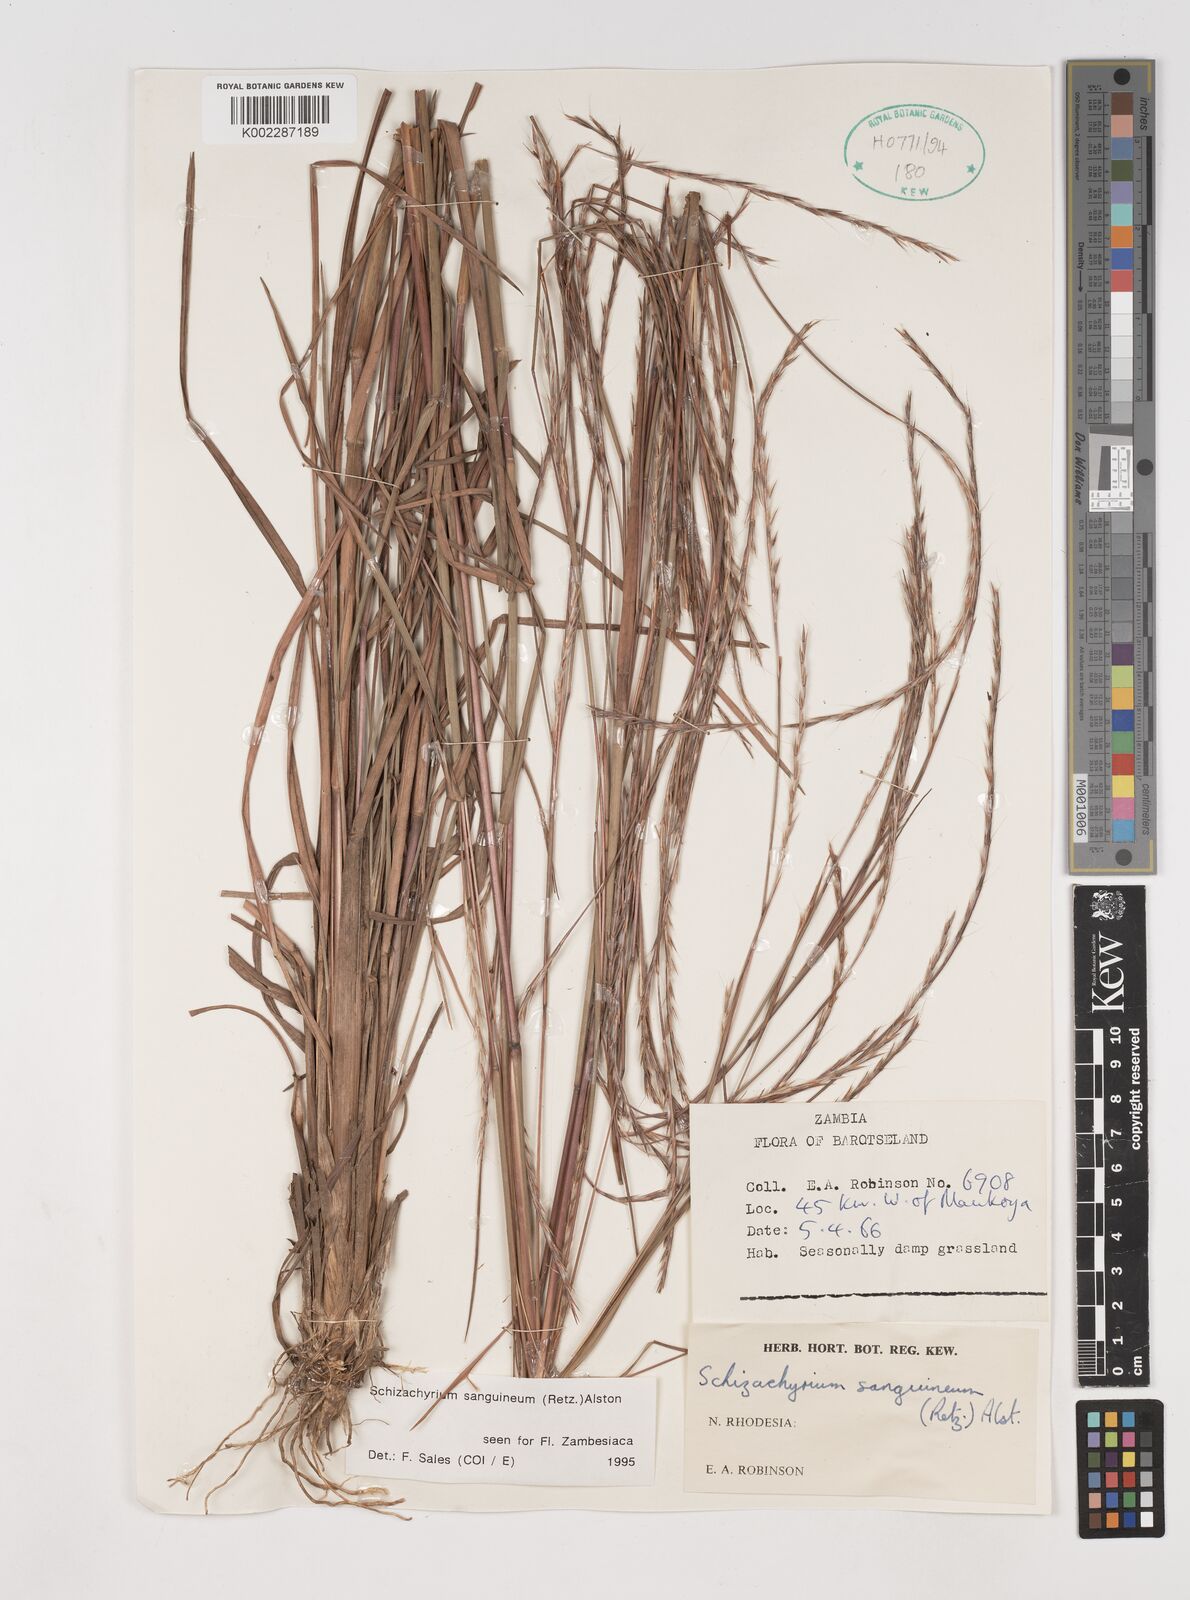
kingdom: Plantae
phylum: Tracheophyta
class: Liliopsida
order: Poales
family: Poaceae
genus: Schizachyrium
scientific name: Schizachyrium sanguineum
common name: Crimson bluestem
